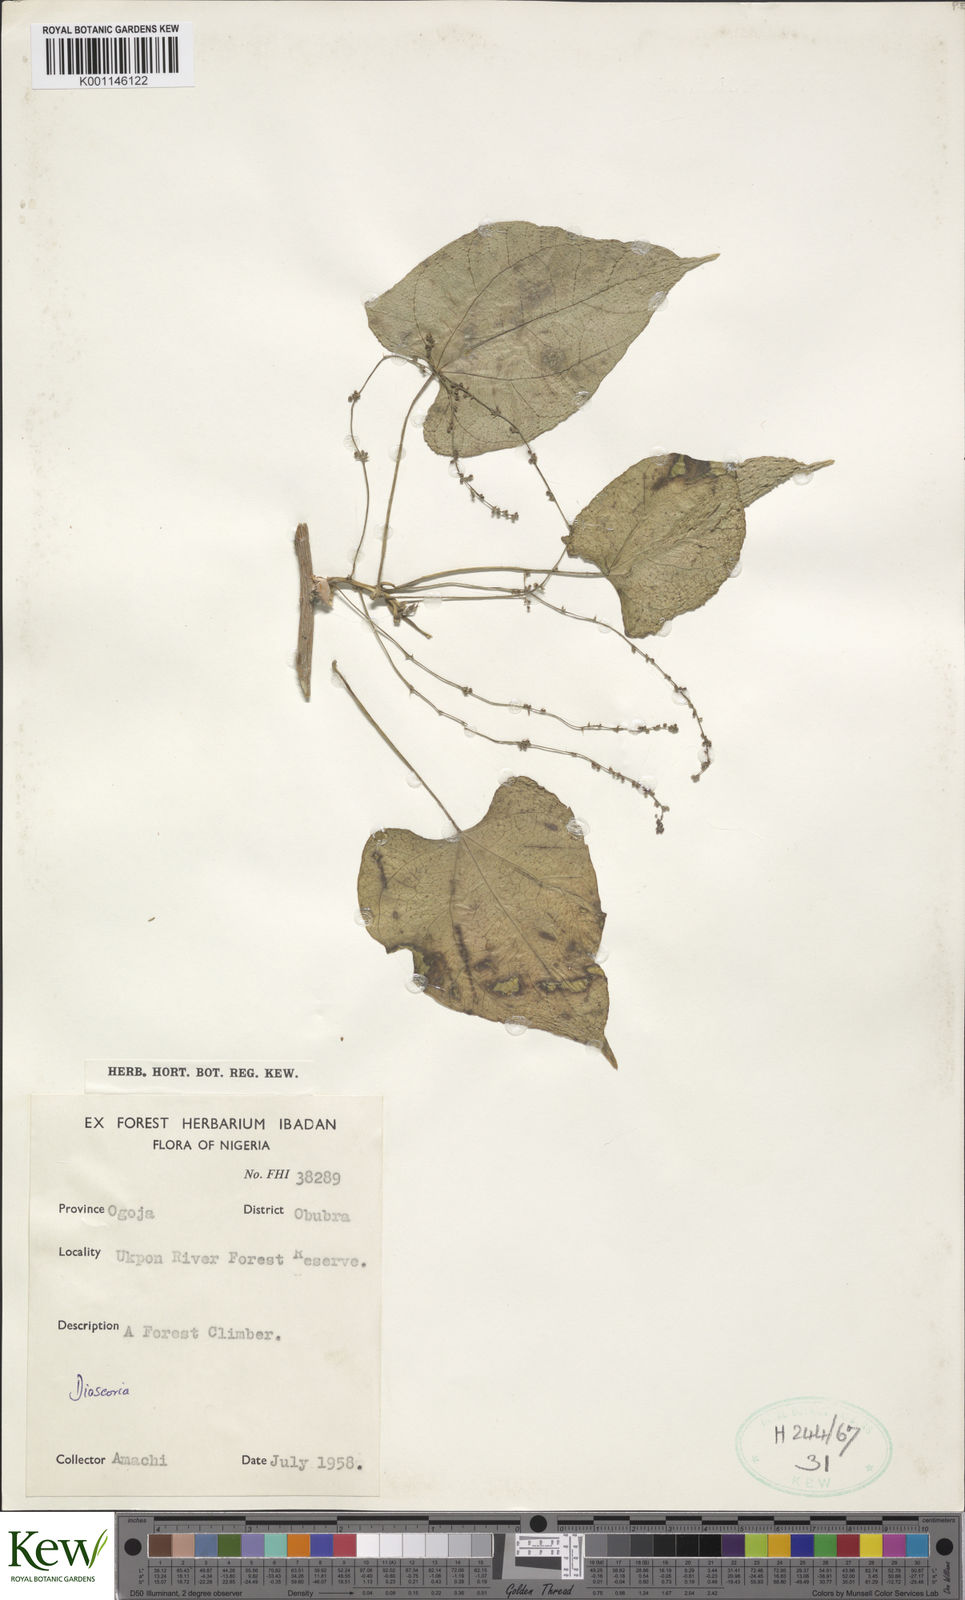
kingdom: Plantae
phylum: Tracheophyta
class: Liliopsida
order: Dioscoreales
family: Dioscoreaceae
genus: Dioscorea
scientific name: Dioscorea
